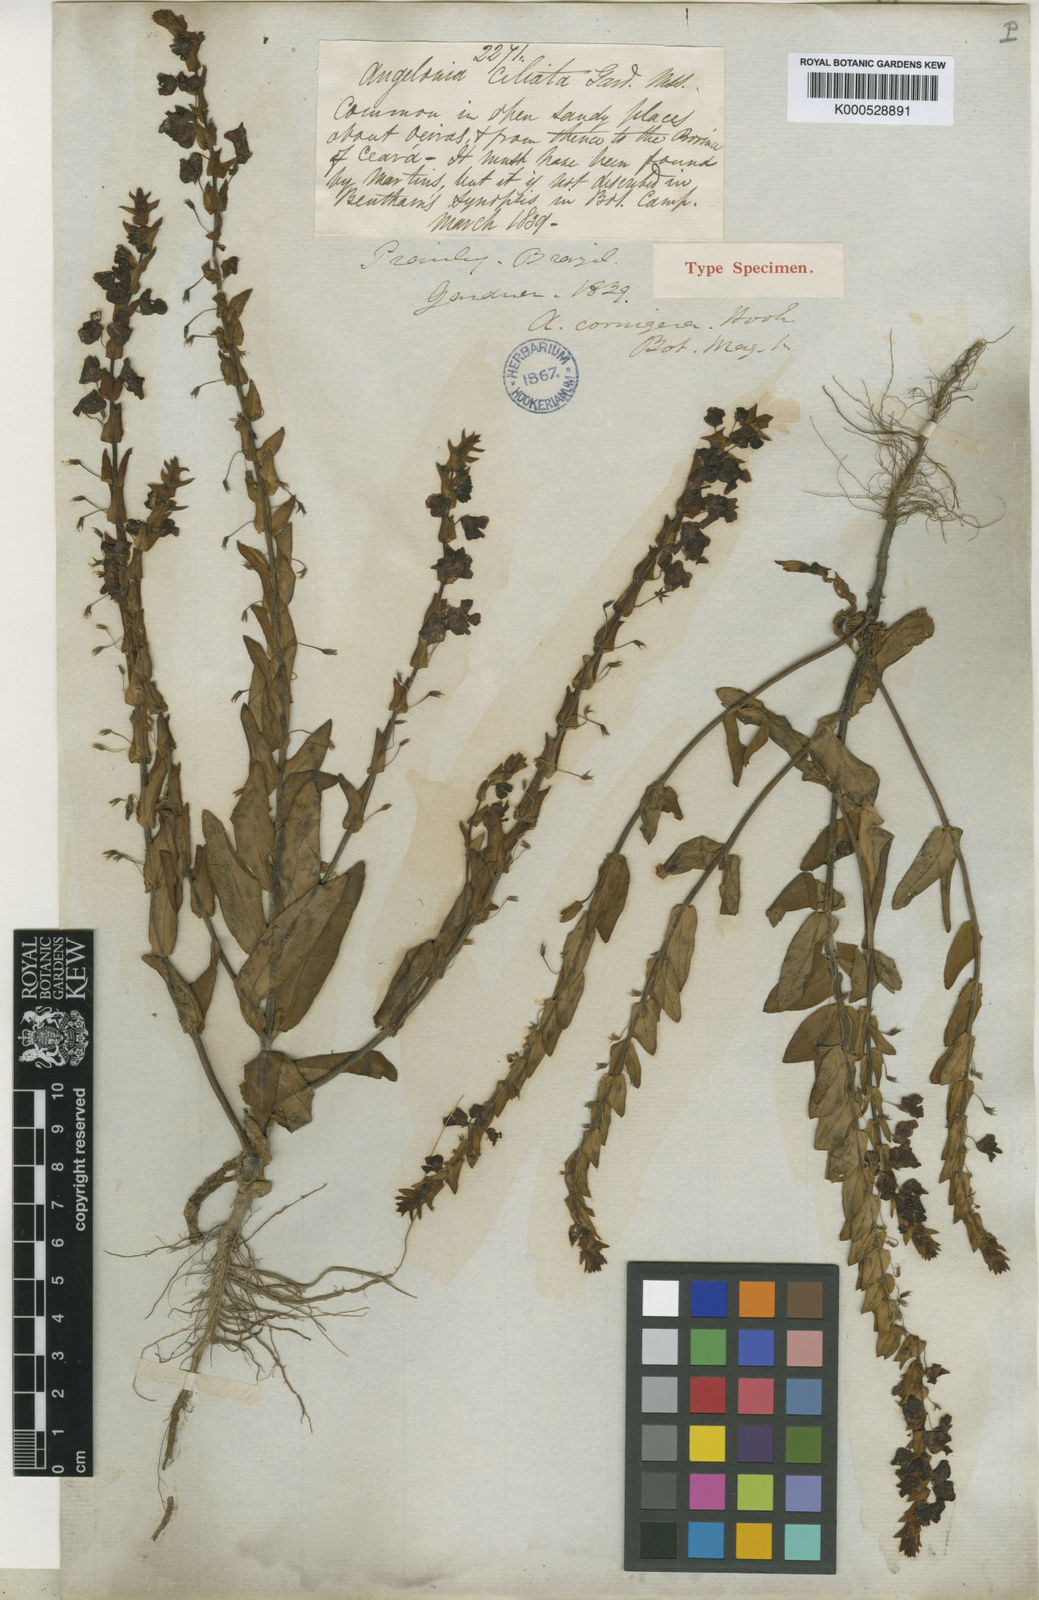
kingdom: Plantae
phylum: Tracheophyta
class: Magnoliopsida
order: Lamiales
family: Plantaginaceae
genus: Angelonia
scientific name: Angelonia cornigera
